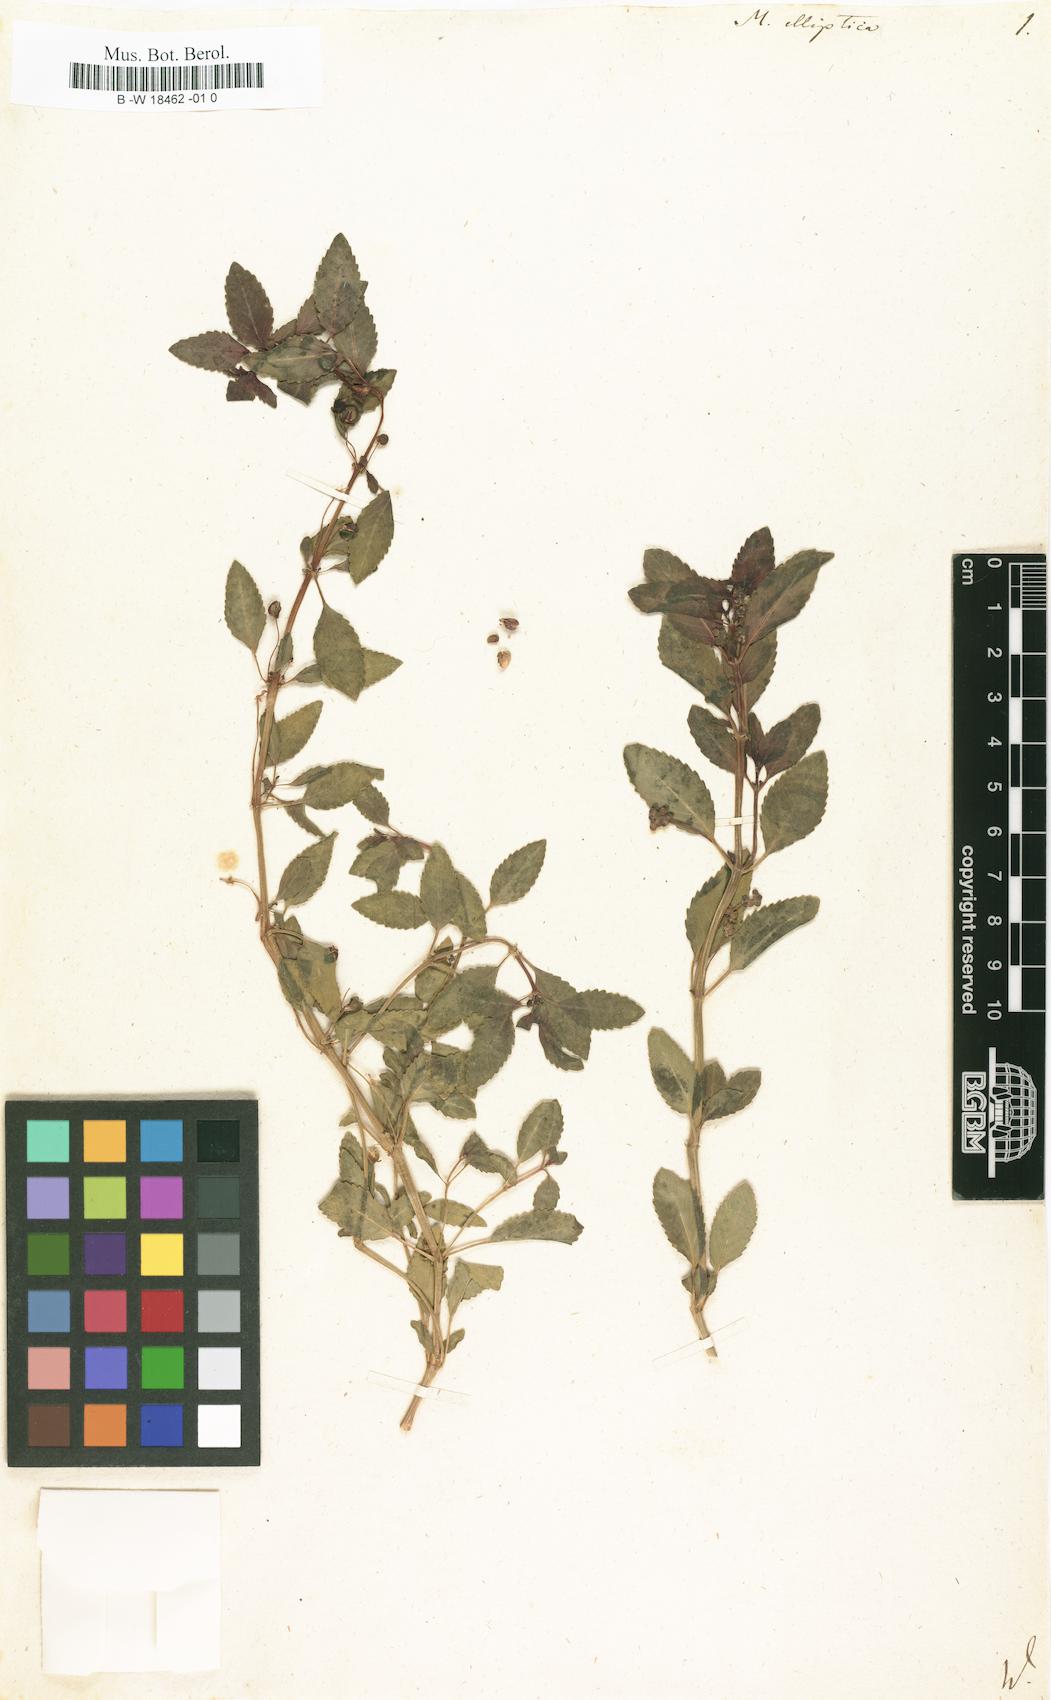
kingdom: Plantae
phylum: Tracheophyta
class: Magnoliopsida
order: Malpighiales
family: Euphorbiaceae
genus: Mercurialis
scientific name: Mercurialis elliptica
